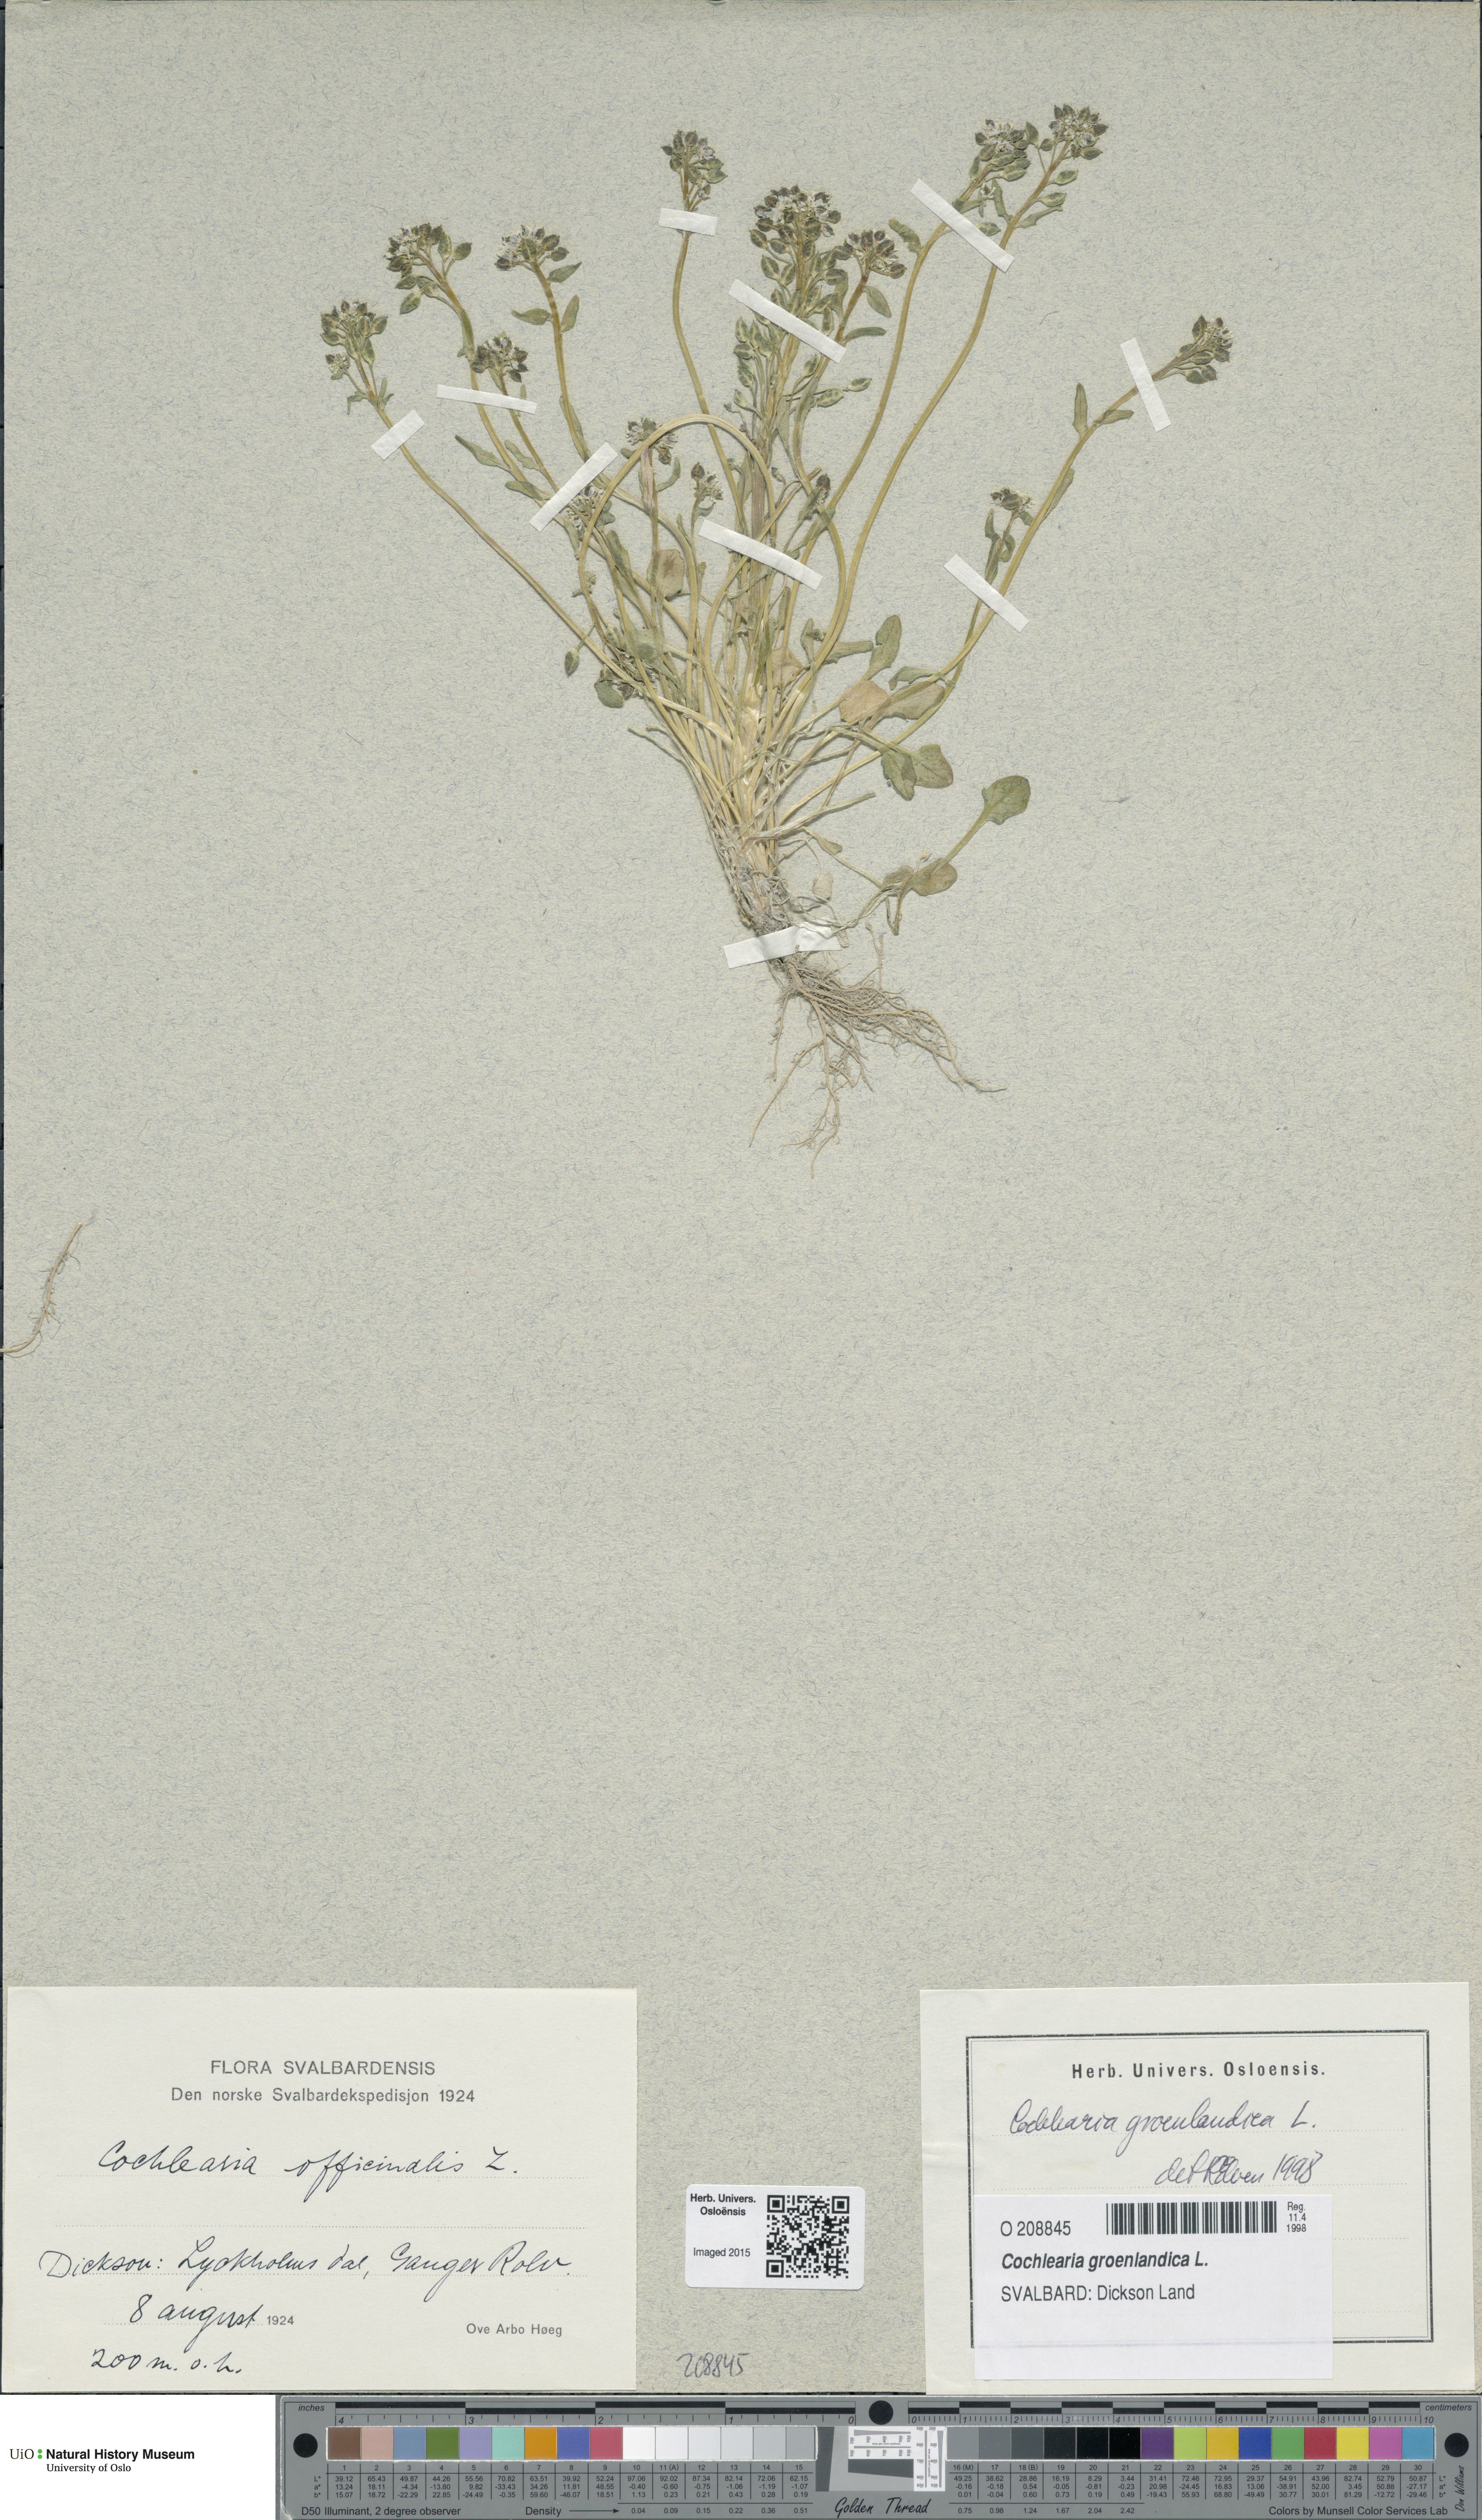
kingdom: Plantae
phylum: Tracheophyta
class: Magnoliopsida
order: Brassicales
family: Brassicaceae
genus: Cochlearia
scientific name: Cochlearia groenlandica
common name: Danish scurvygrass
